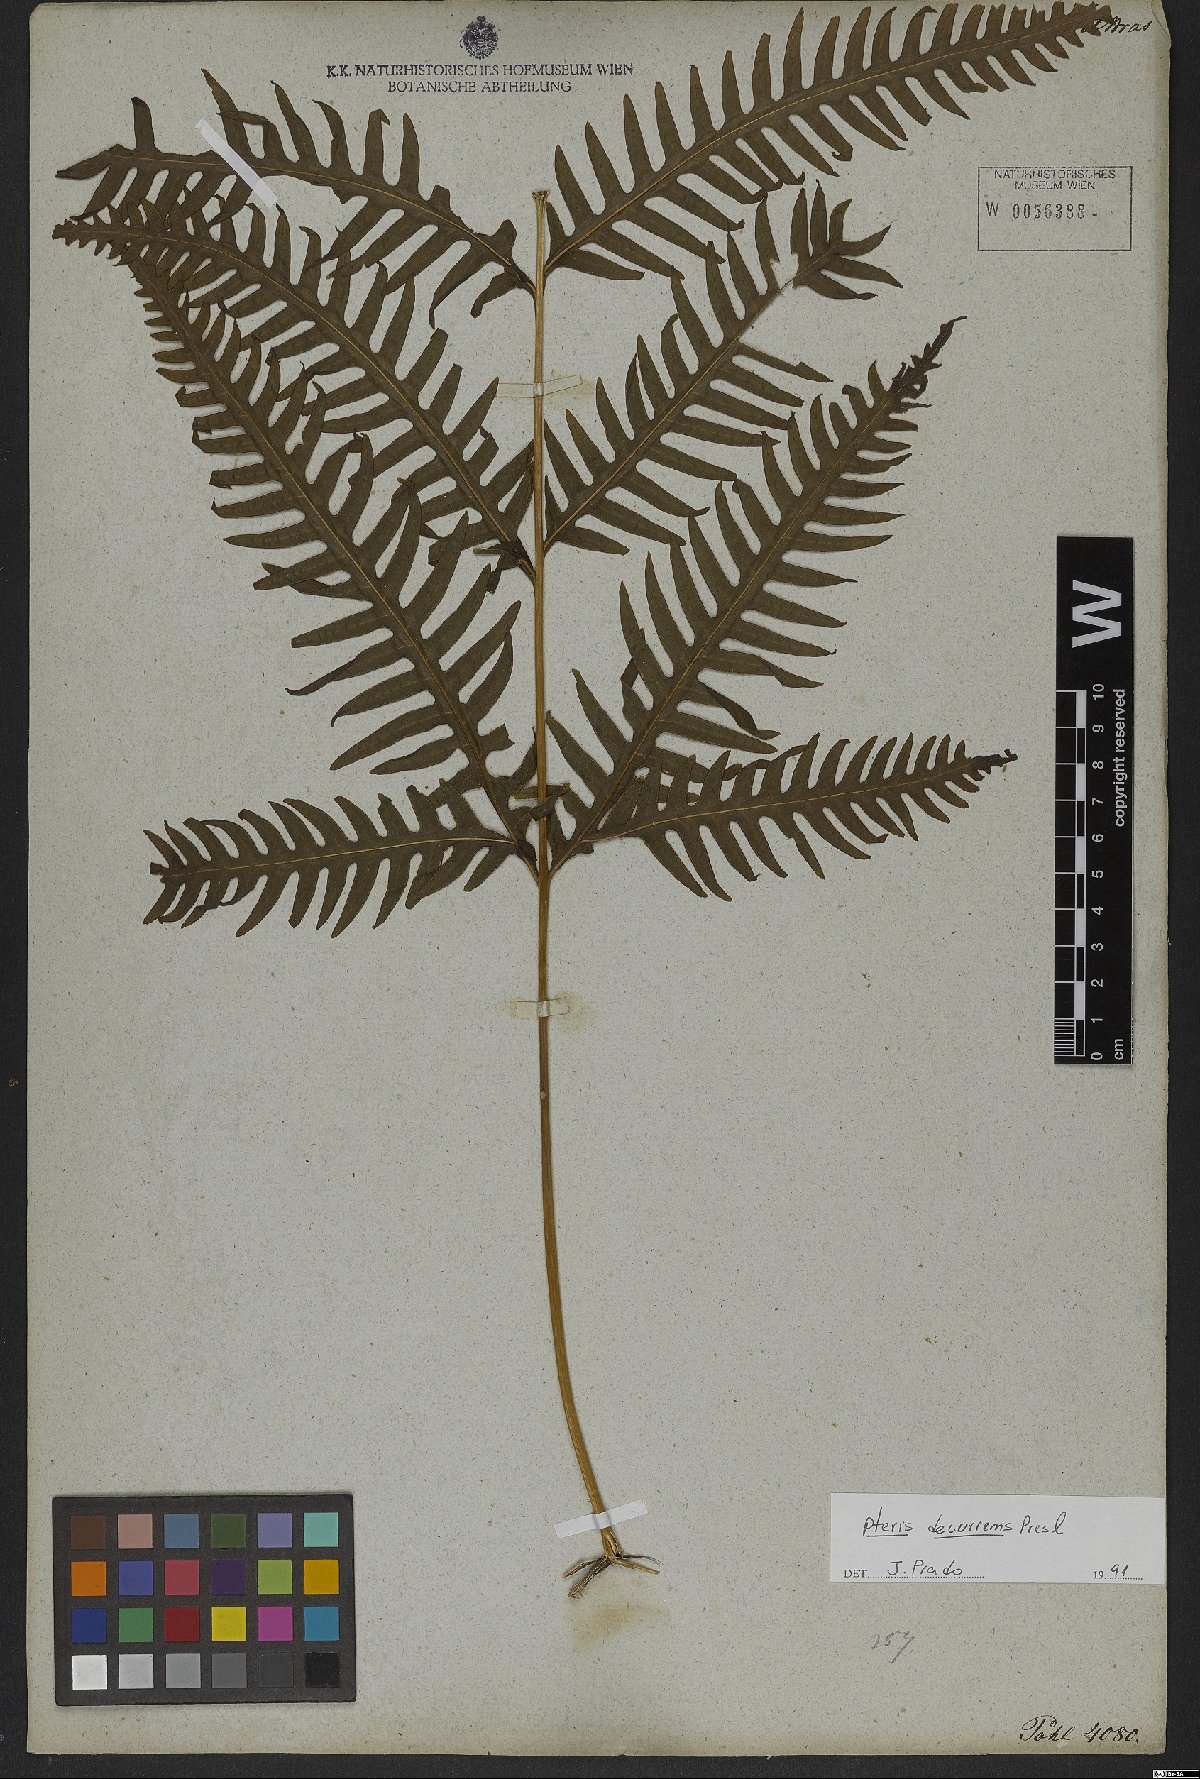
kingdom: Plantae
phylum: Tracheophyta
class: Polypodiopsida
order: Polypodiales
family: Pteridaceae
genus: Pteris
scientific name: Pteris decurrens
